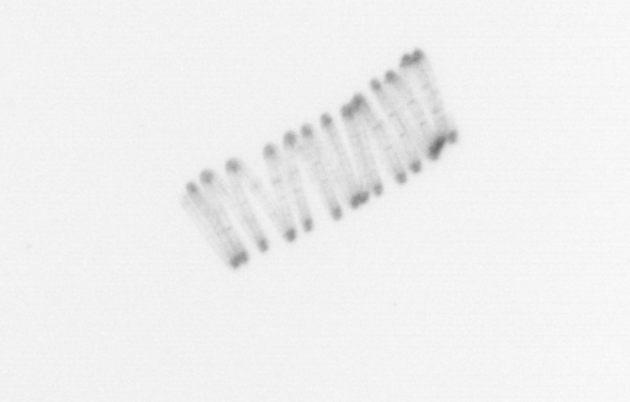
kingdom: Chromista
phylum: Ochrophyta
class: Bacillariophyceae
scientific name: Bacillariophyceae
